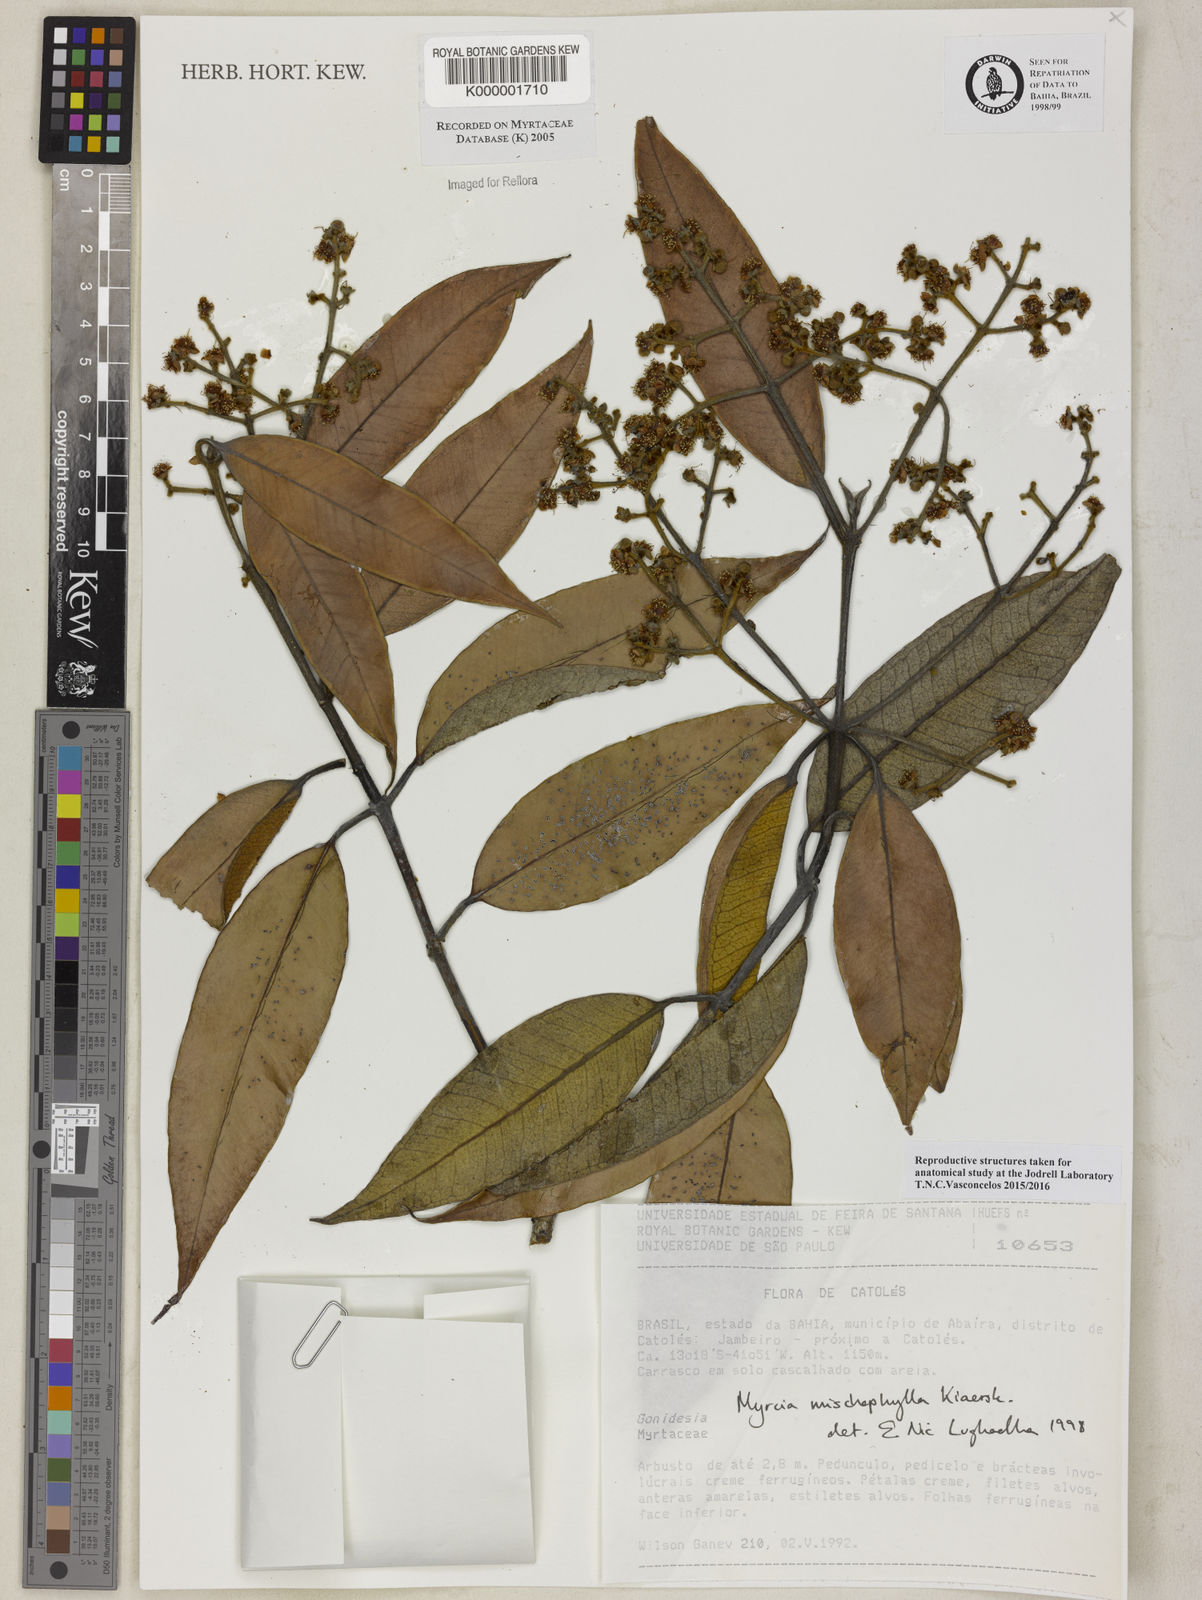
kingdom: Plantae
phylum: Tracheophyta
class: Magnoliopsida
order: Myrtales
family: Myrtaceae
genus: Myrcia
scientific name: Myrcia mischophylla
